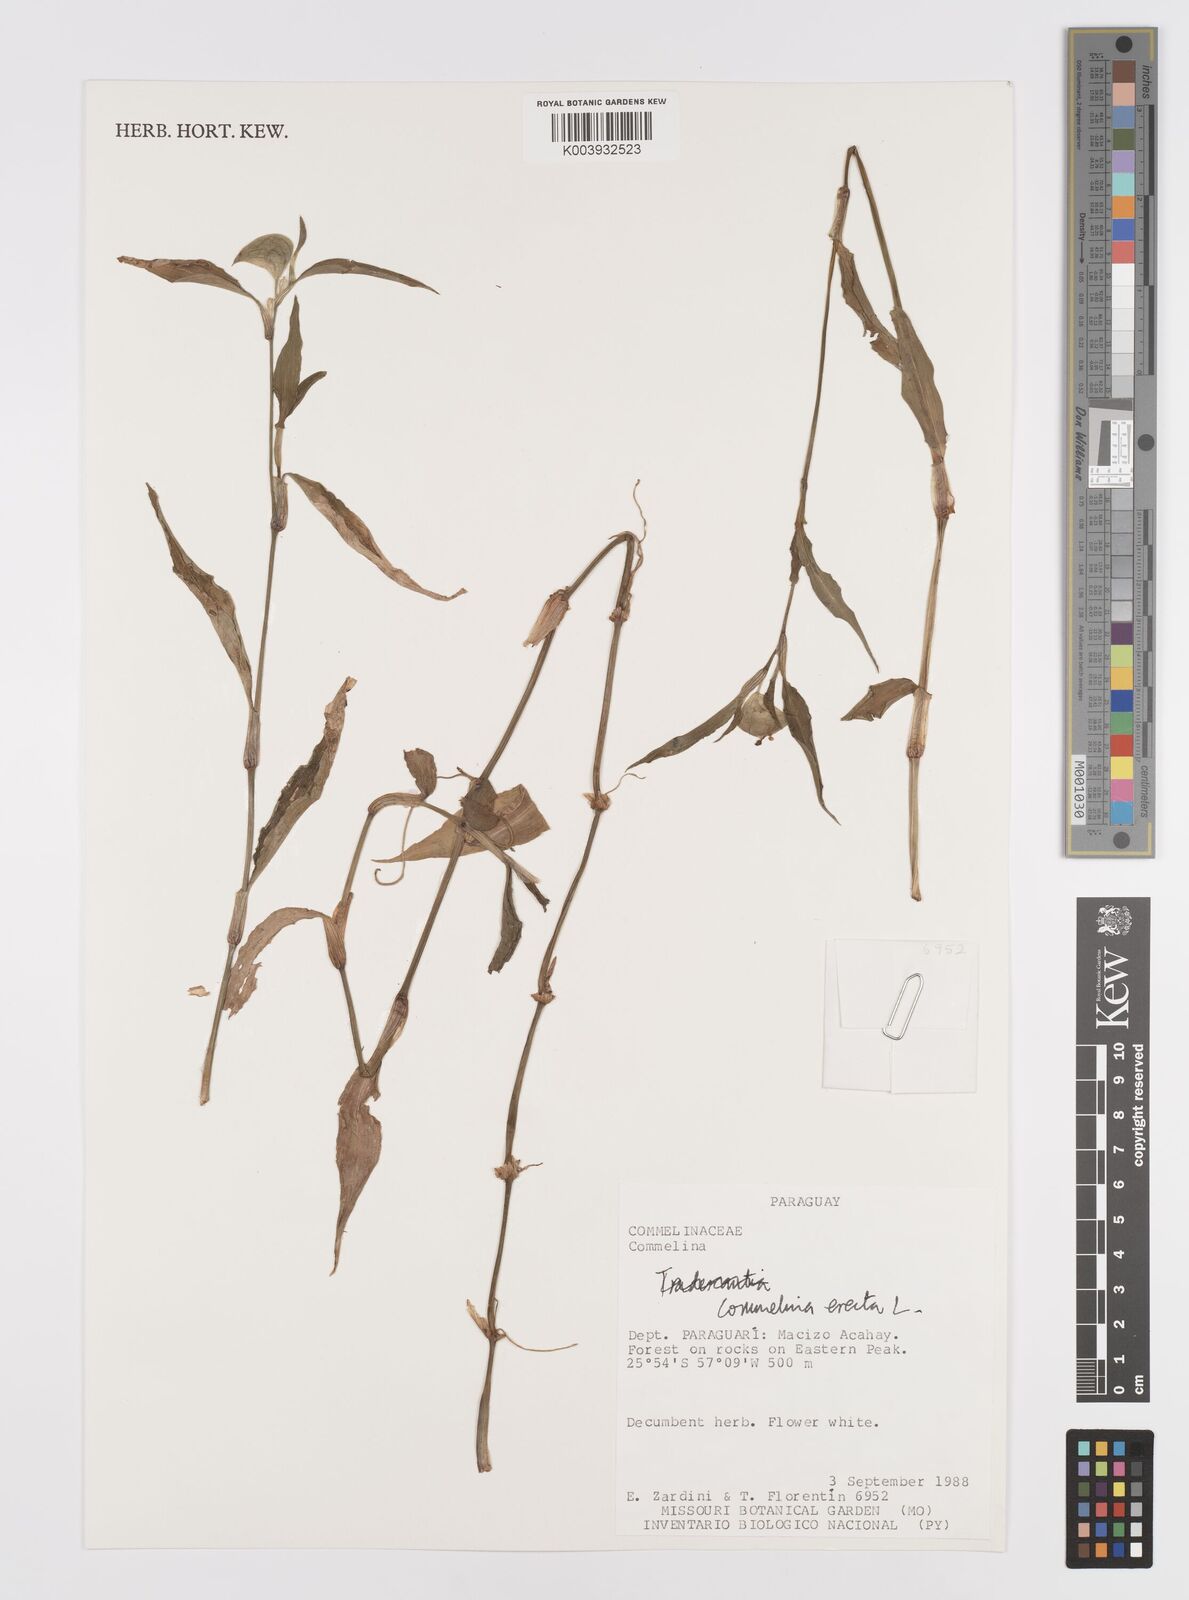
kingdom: Plantae
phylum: Tracheophyta
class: Liliopsida
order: Commelinales
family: Commelinaceae
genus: Commelina
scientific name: Commelina erecta
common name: Blousel blommetjie
